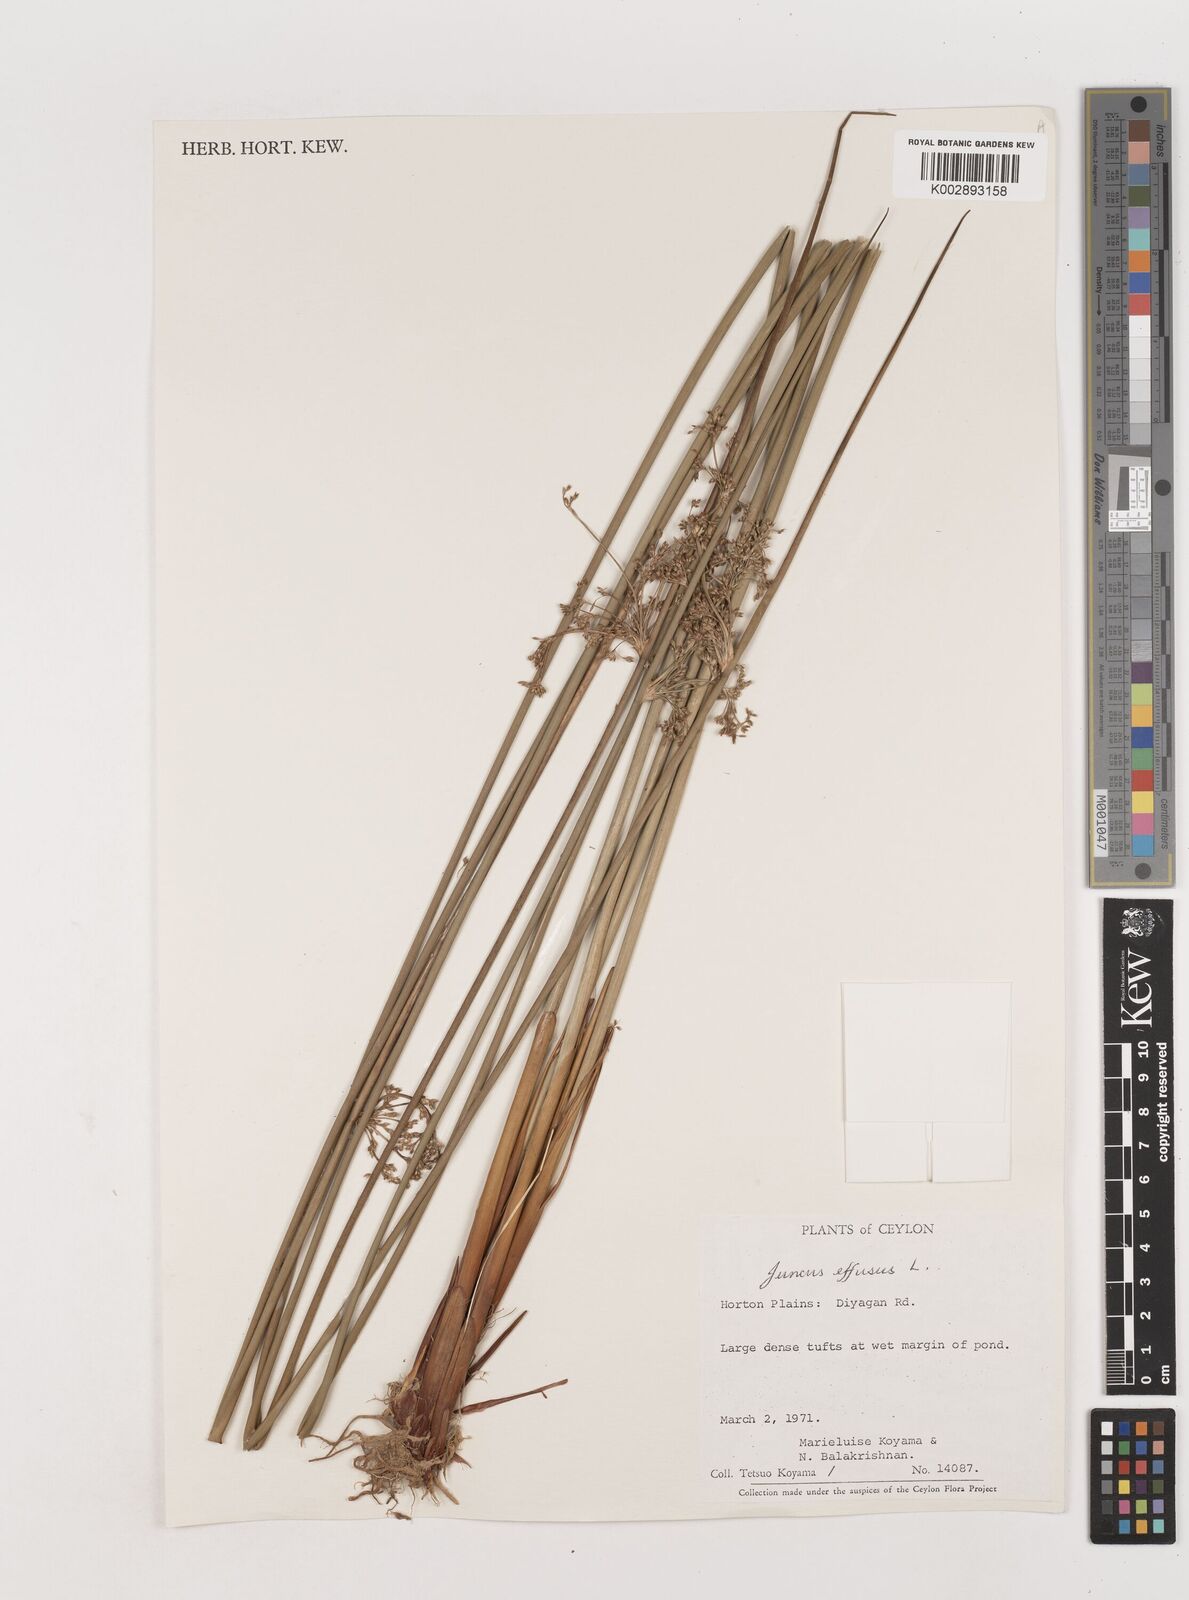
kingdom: Plantae
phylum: Tracheophyta
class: Liliopsida
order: Poales
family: Juncaceae
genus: Juncus
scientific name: Juncus effusus
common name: Soft rush
